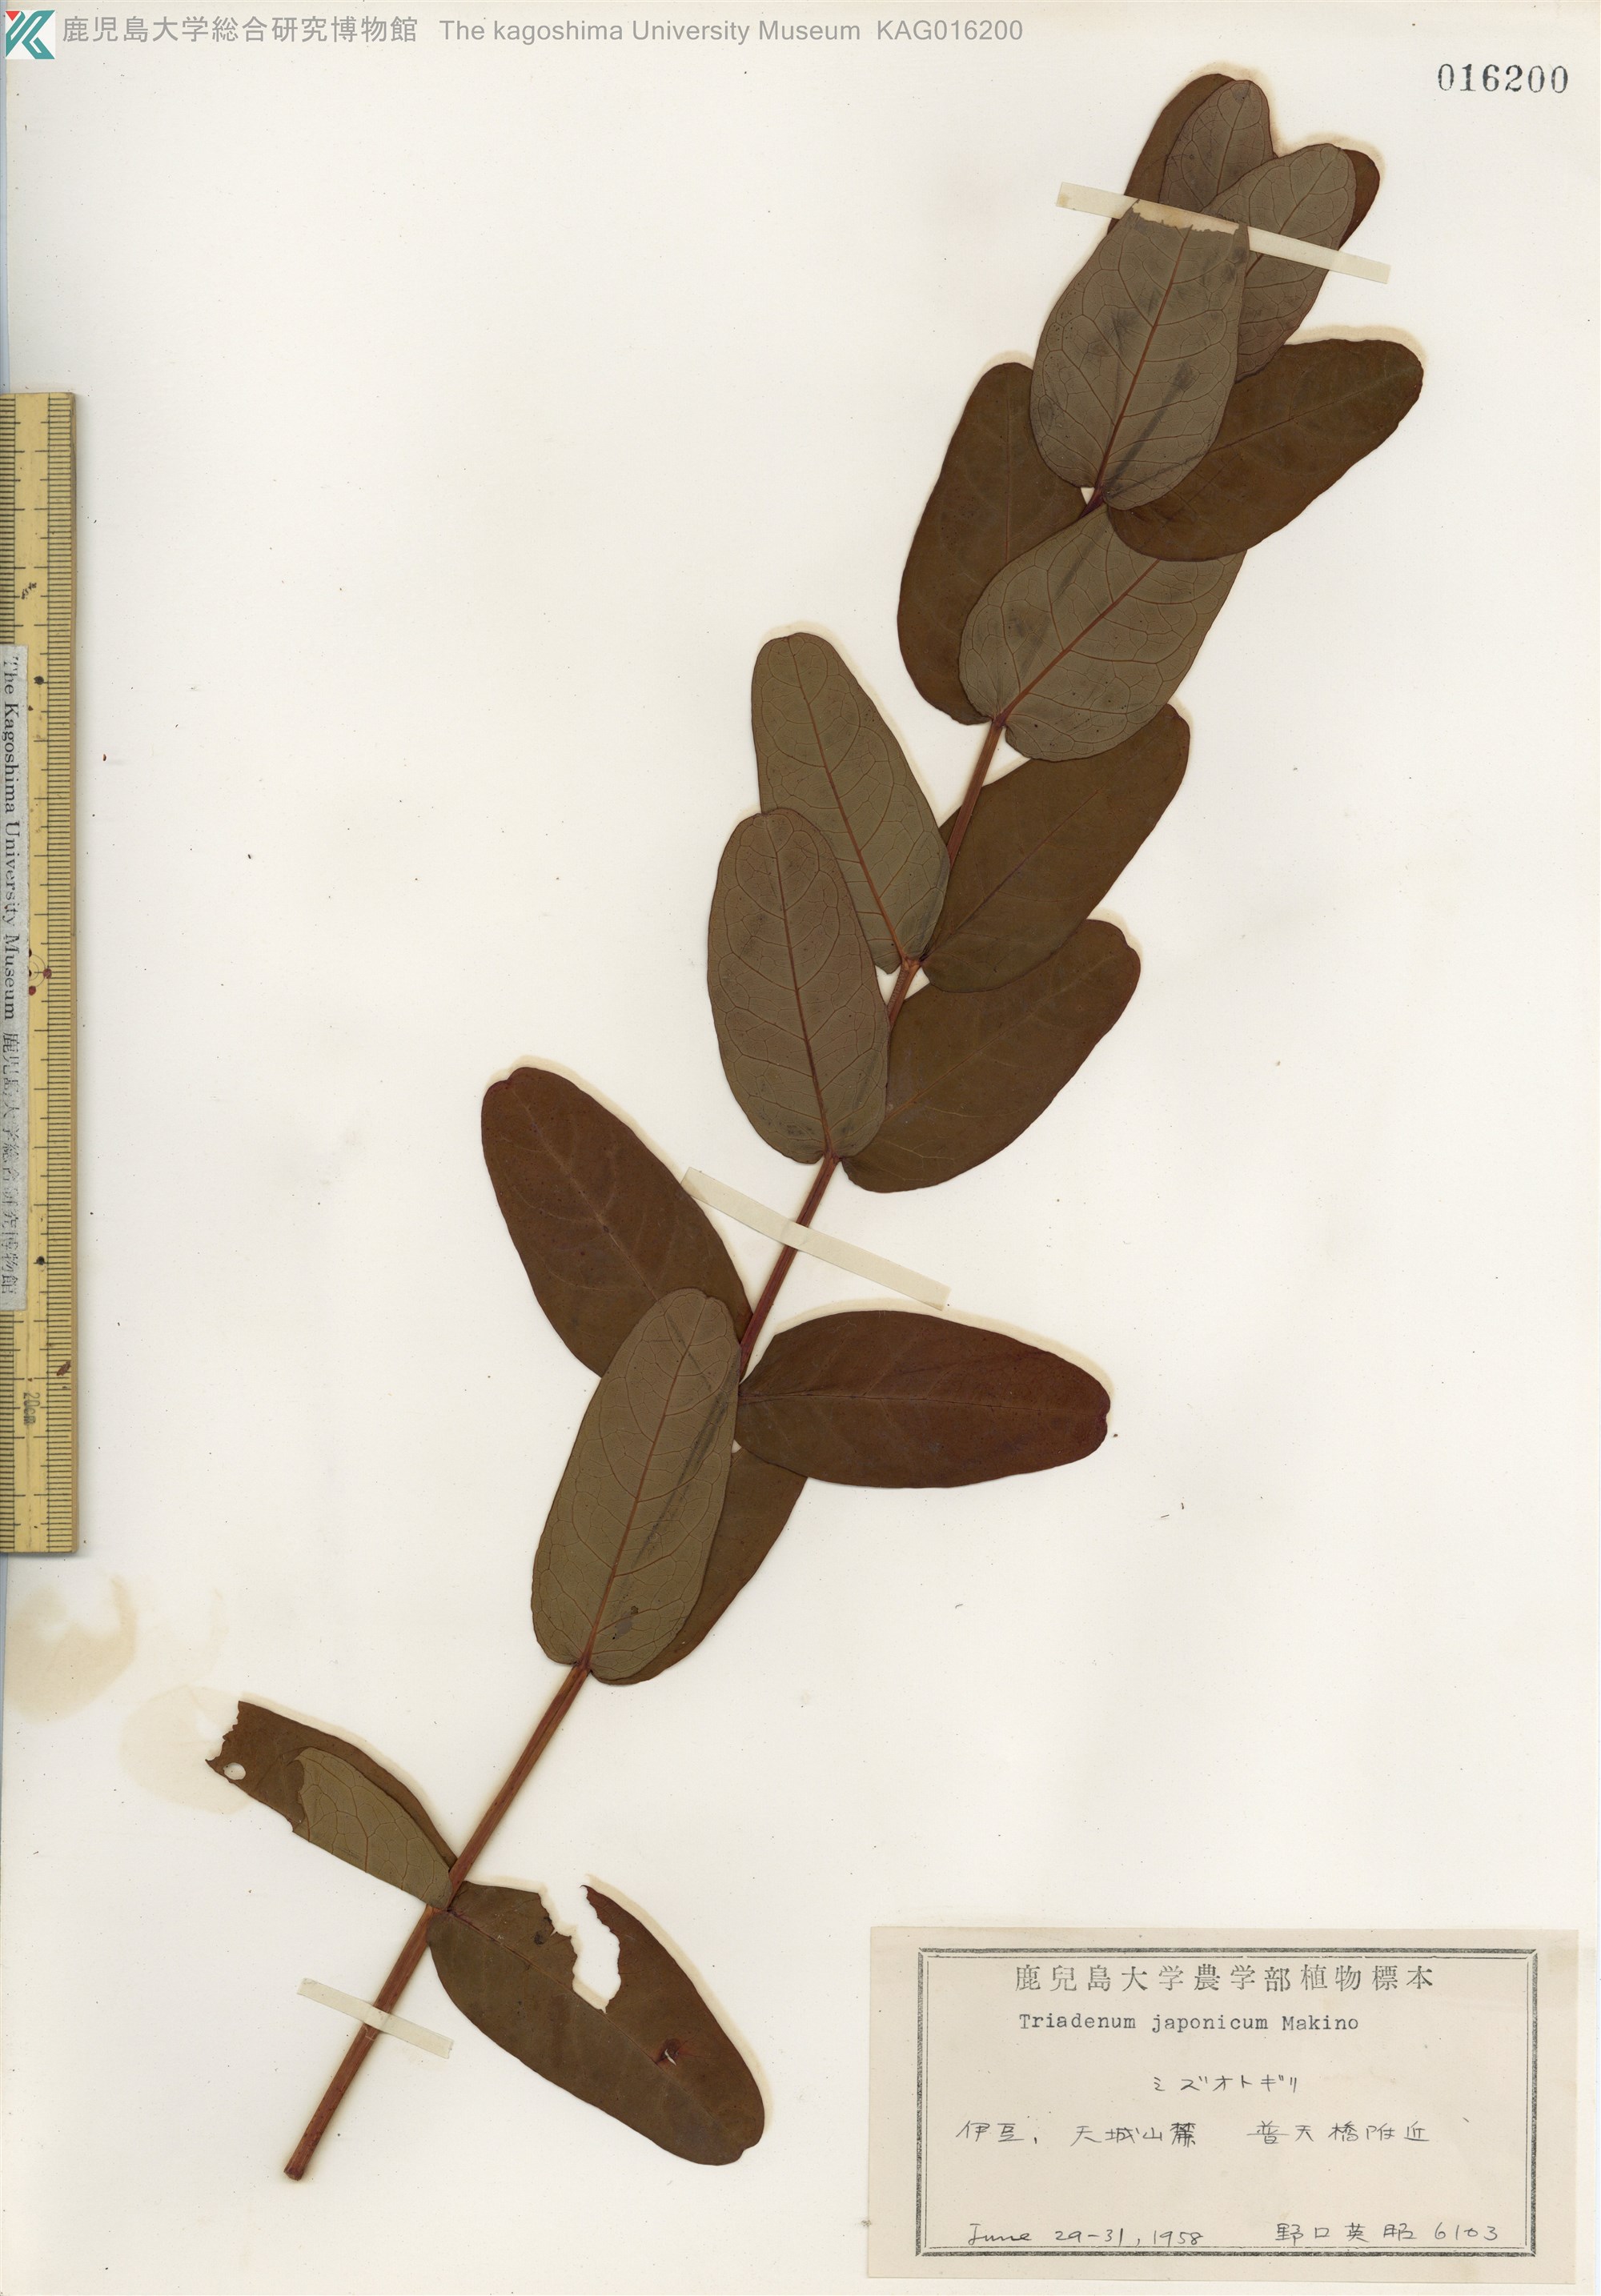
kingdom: Plantae
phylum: Tracheophyta
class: Magnoliopsida
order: Malpighiales
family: Hypericaceae
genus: Triadenum
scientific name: Triadenum japonicum
